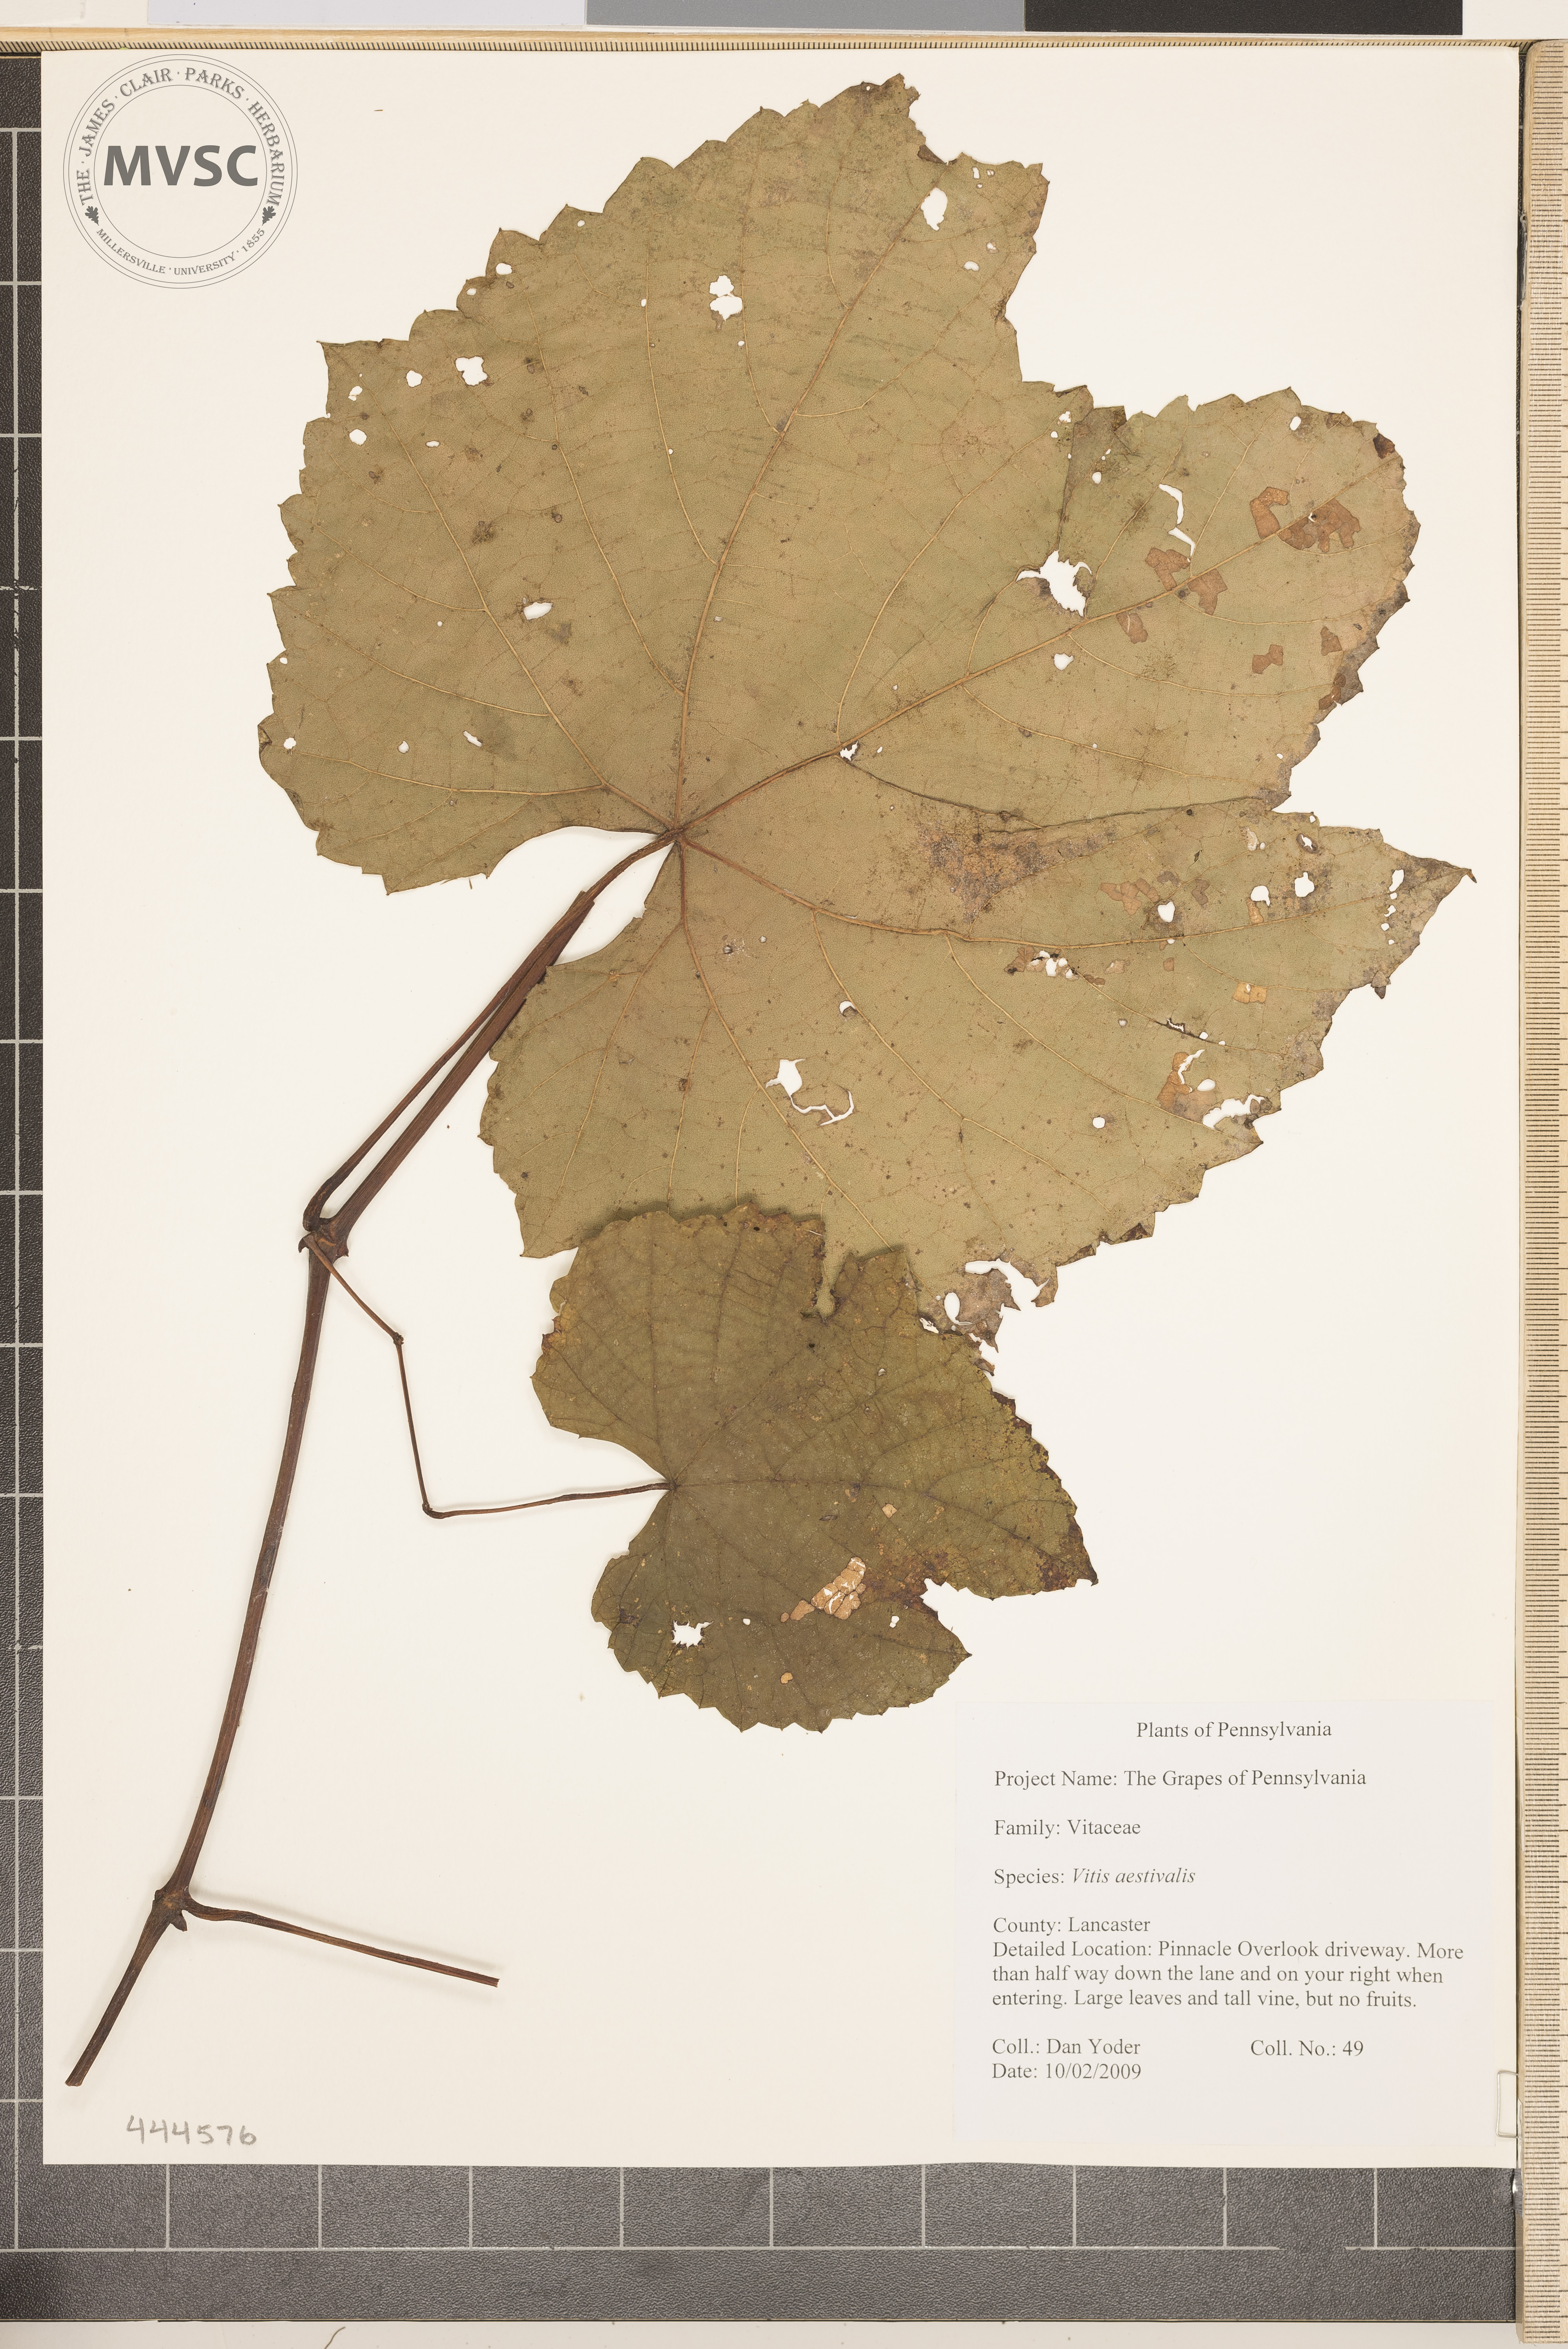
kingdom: Plantae
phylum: Tracheophyta
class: Magnoliopsida
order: Vitales
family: Vitaceae
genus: Vitis
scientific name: Vitis aestivalis
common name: Pigeon grape
